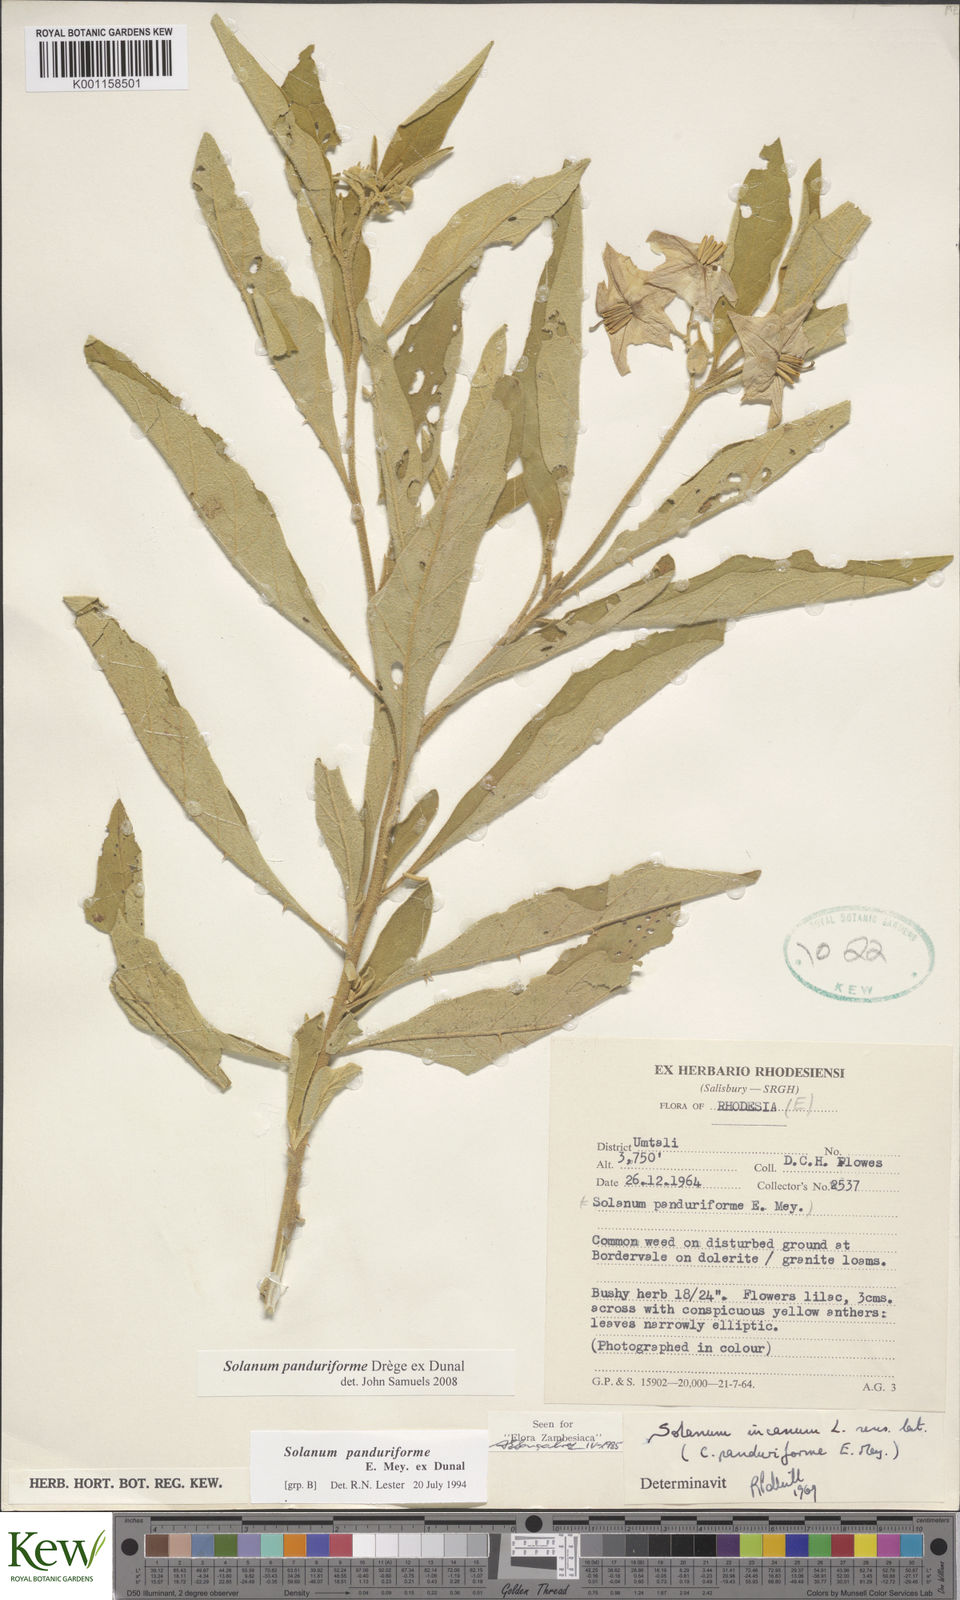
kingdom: Plantae
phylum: Tracheophyta
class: Magnoliopsida
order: Solanales
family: Solanaceae
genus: Solanum
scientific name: Solanum campylacanthum
